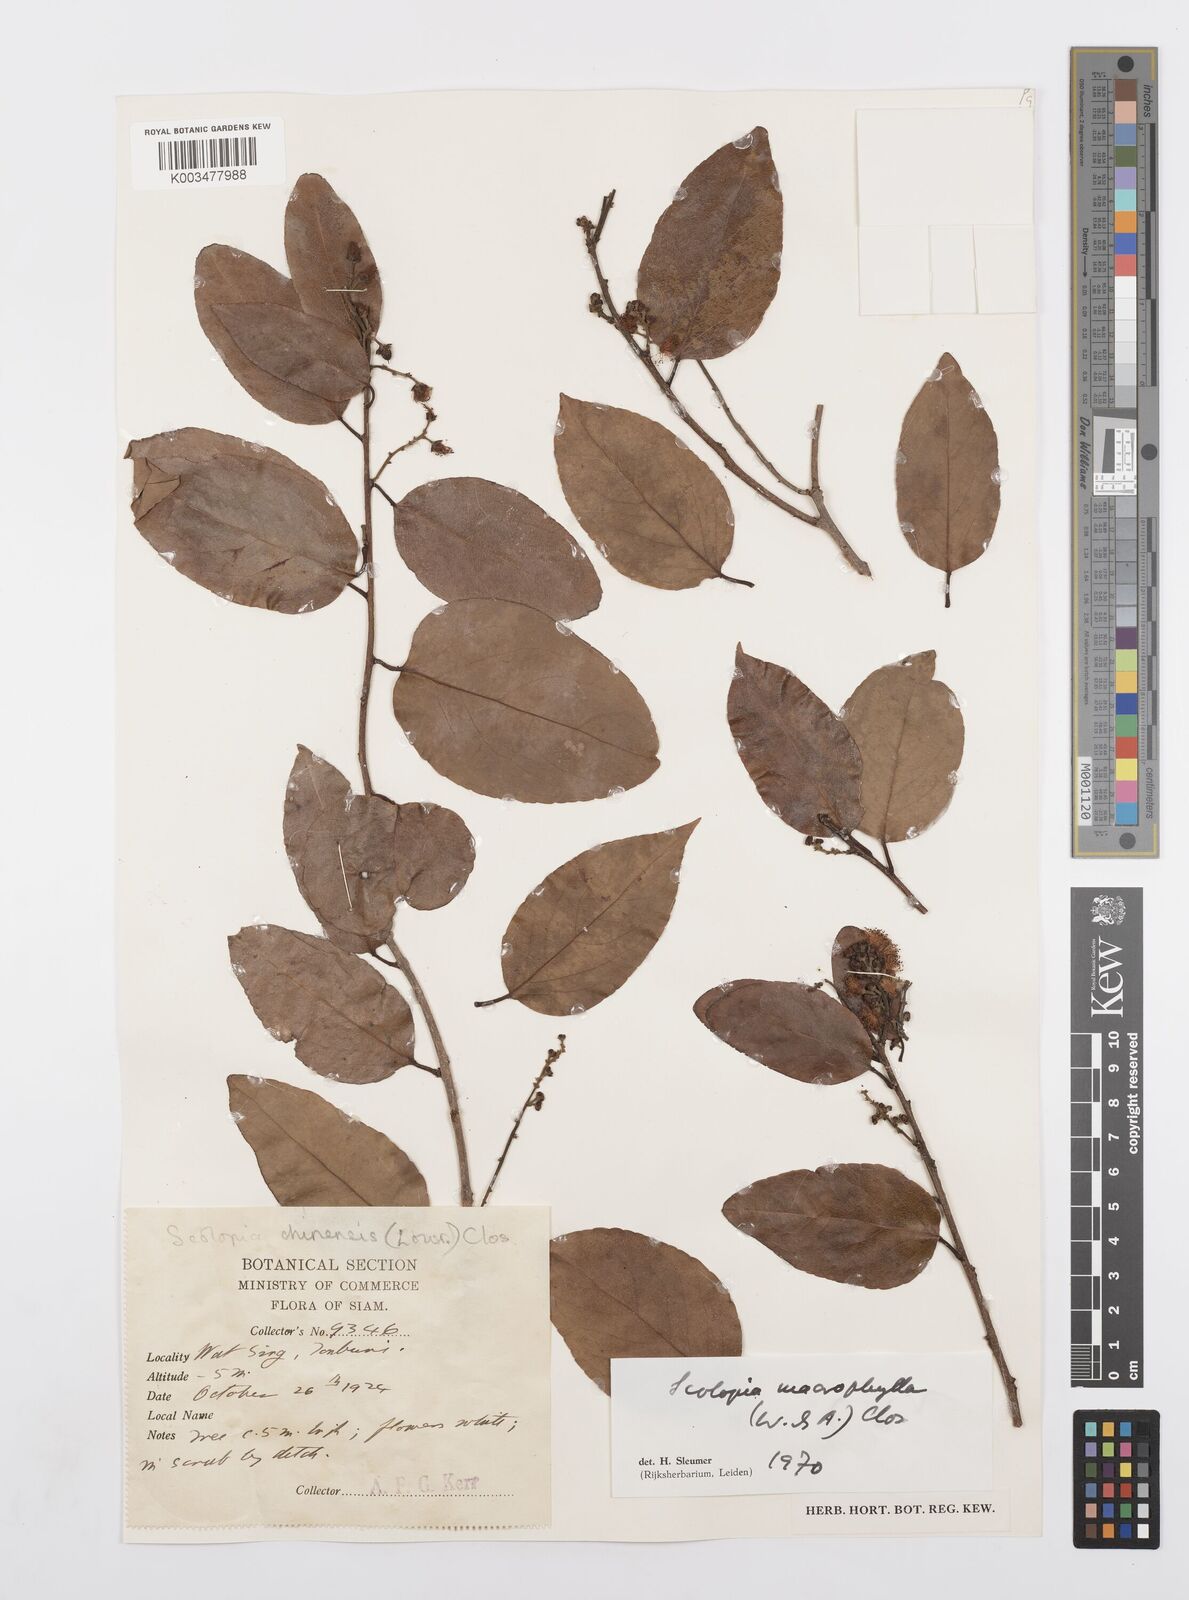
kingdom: Plantae
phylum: Tracheophyta
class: Magnoliopsida
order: Malpighiales
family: Salicaceae
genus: Scolopia
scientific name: Scolopia macrophylla
